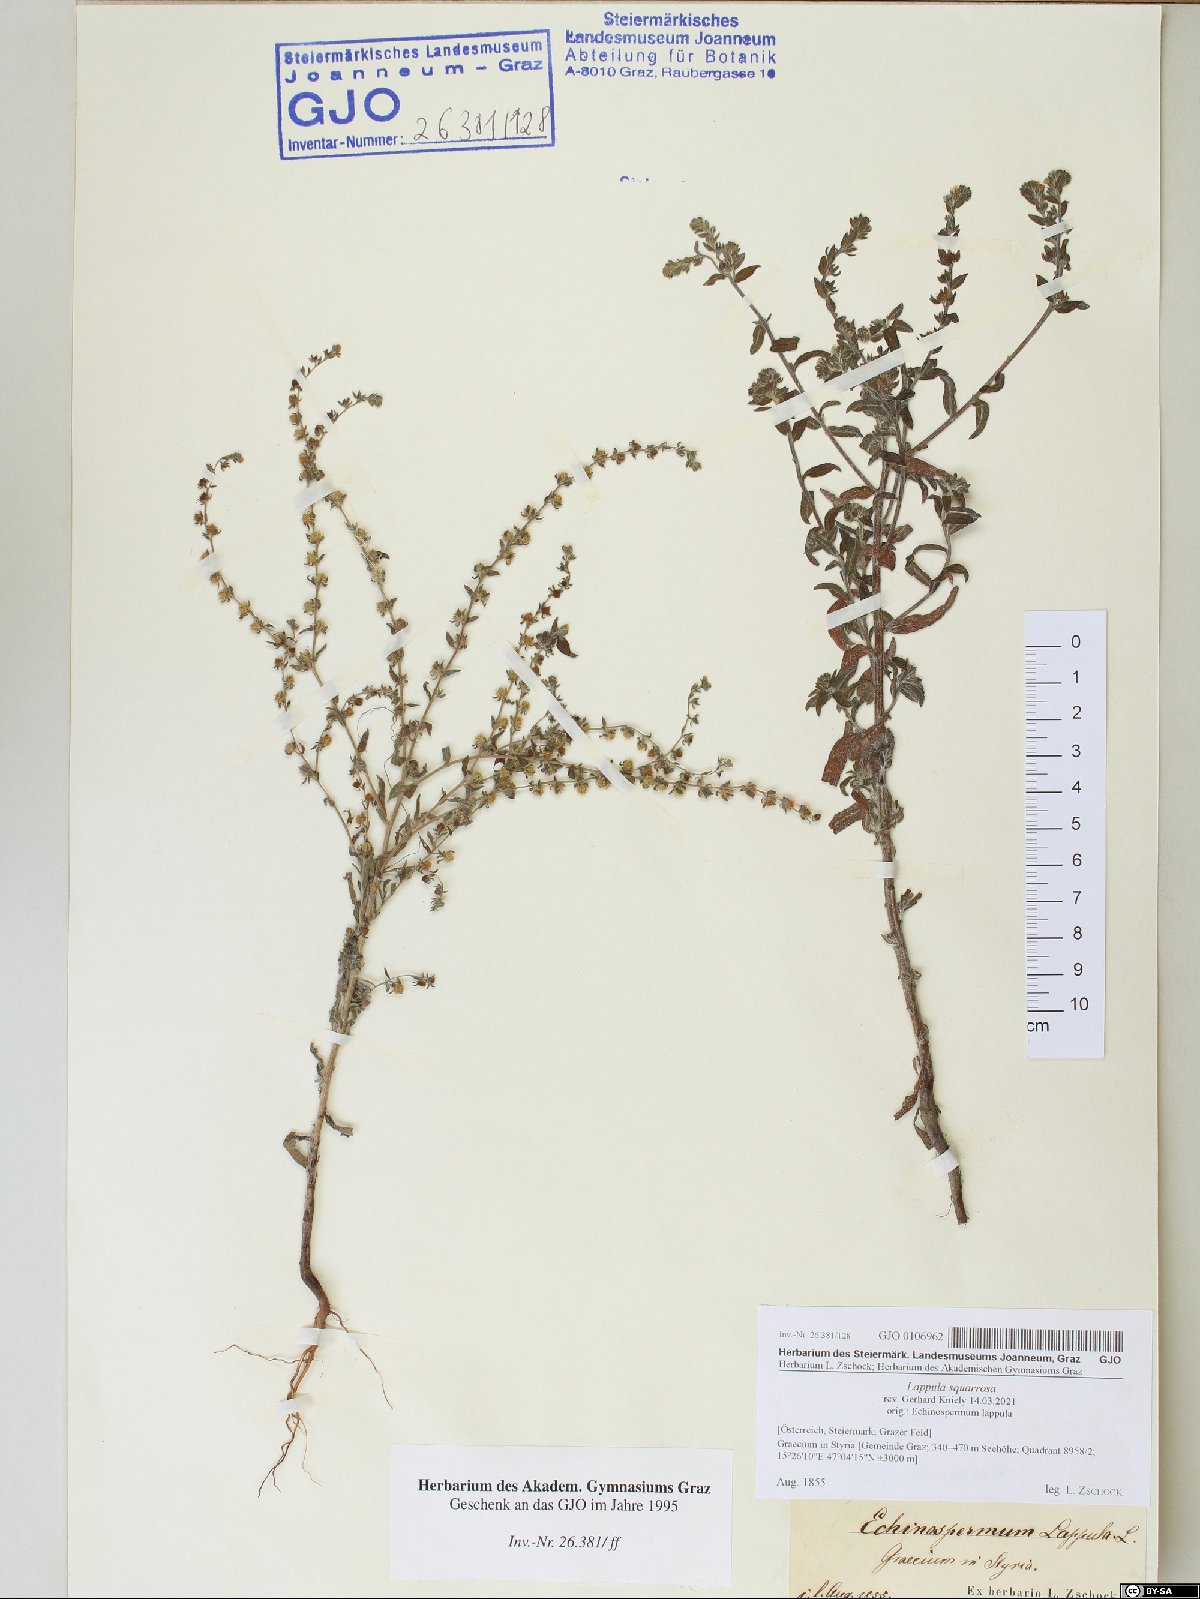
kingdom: Plantae
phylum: Tracheophyta
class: Magnoliopsida
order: Boraginales
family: Boraginaceae
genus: Lappula
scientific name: Lappula squarrosa
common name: European stickseed
